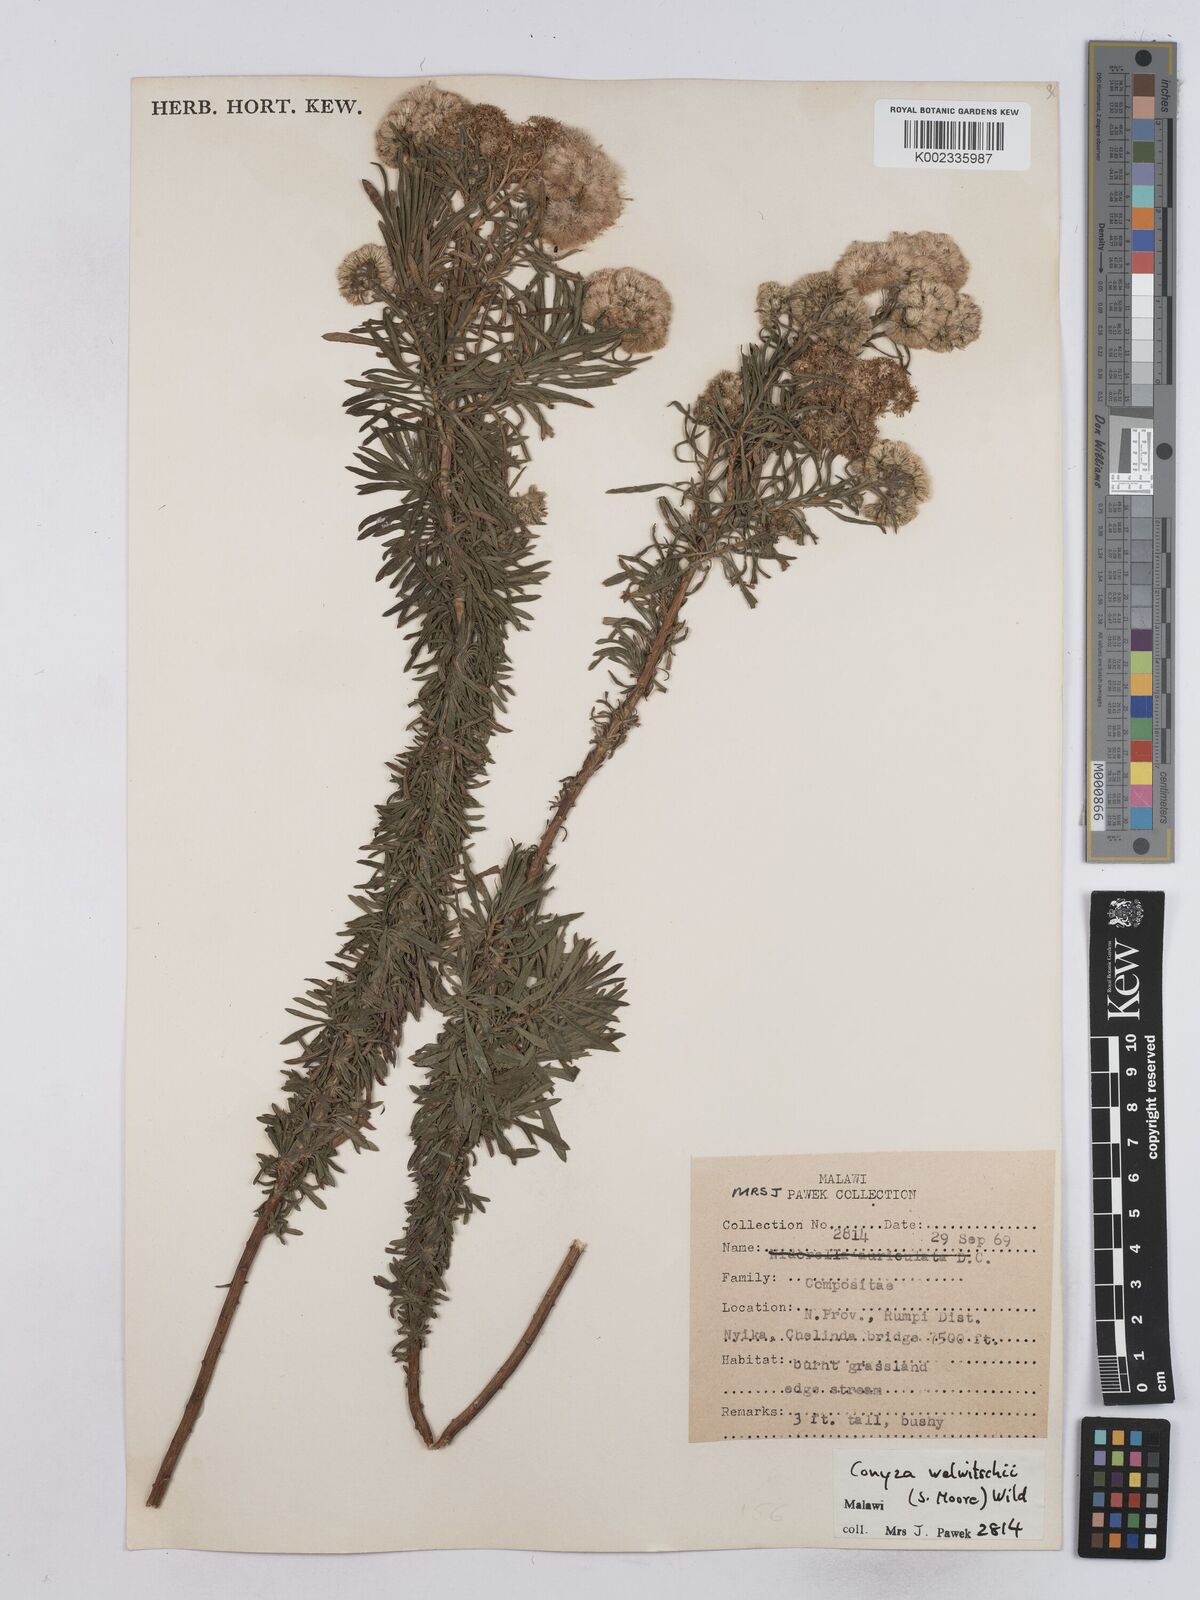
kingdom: Plantae
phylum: Tracheophyta
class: Magnoliopsida
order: Asterales
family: Asteraceae
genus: Nidorella
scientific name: Nidorella welwitschii
